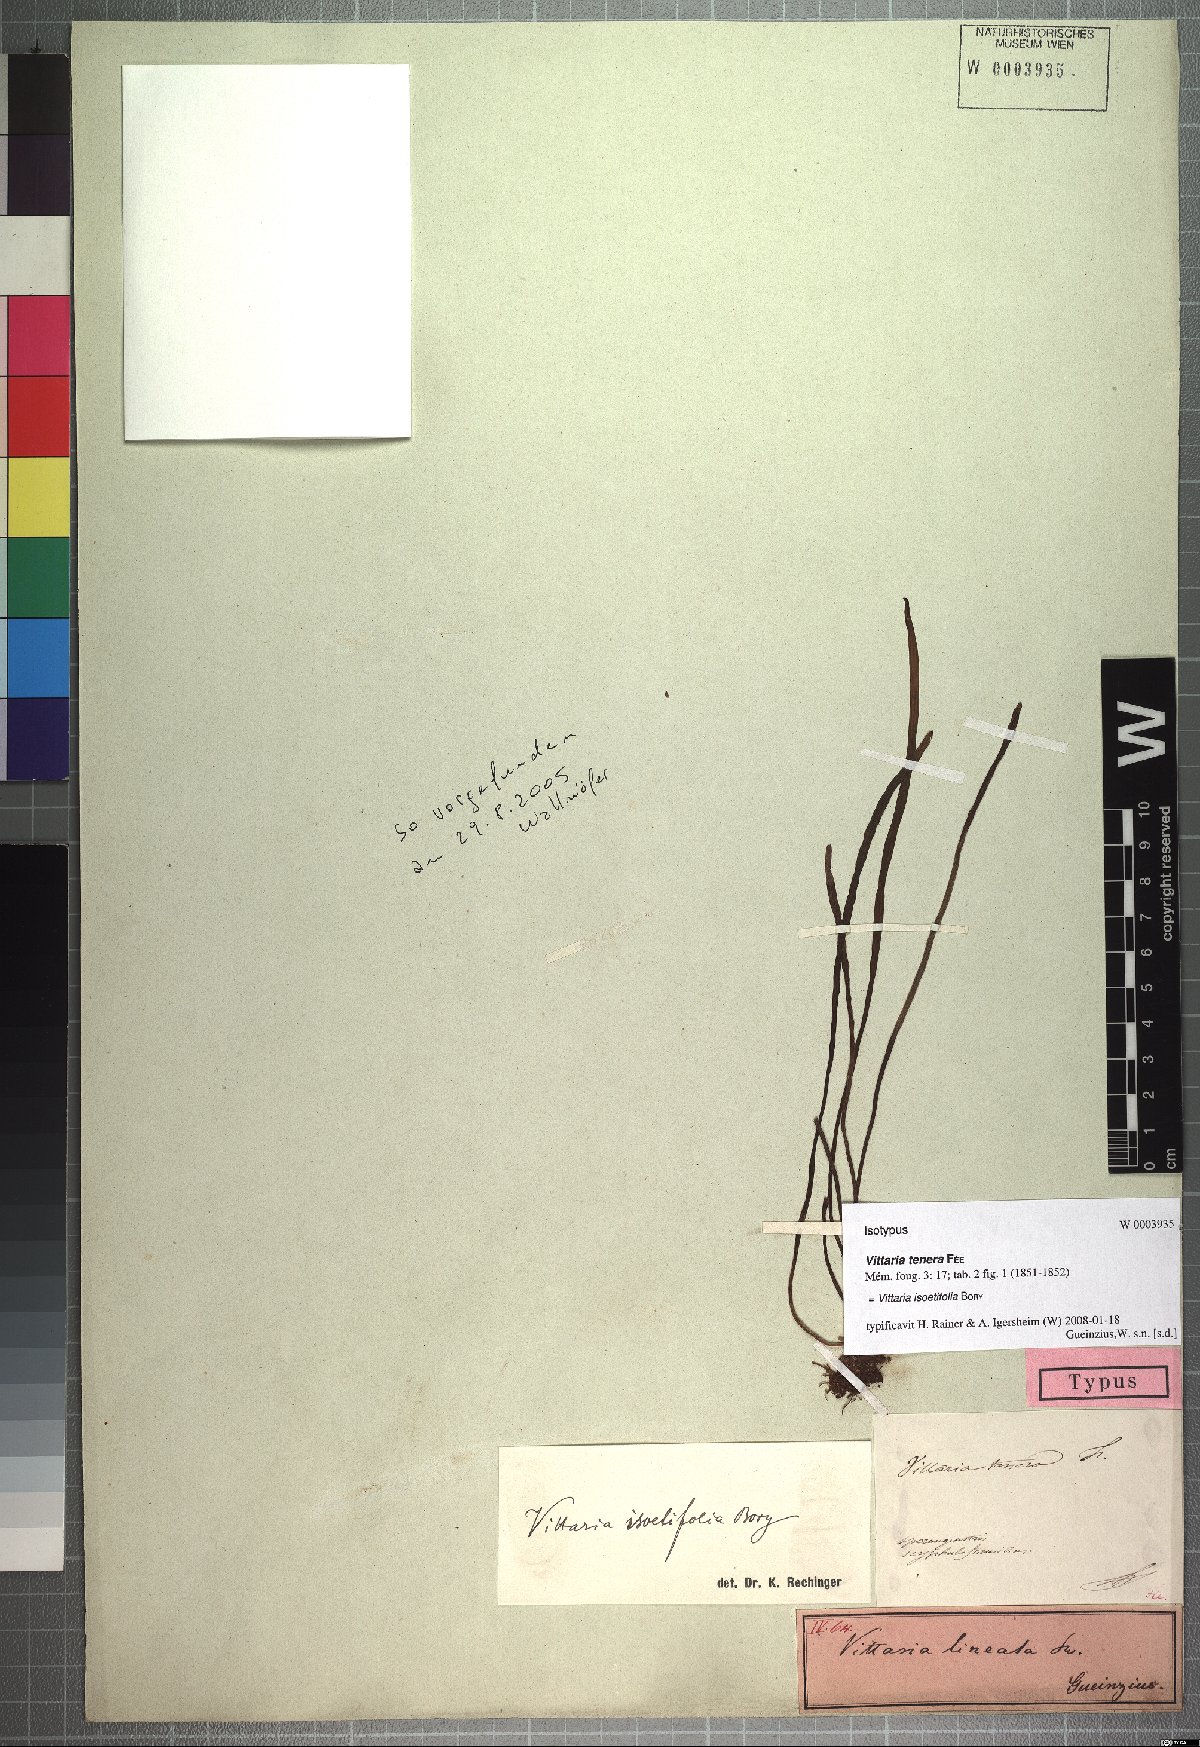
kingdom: Plantae
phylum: Tracheophyta
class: Polypodiopsida
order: Polypodiales
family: Pteridaceae
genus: Vittaria
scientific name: Vittaria isoetifolia
